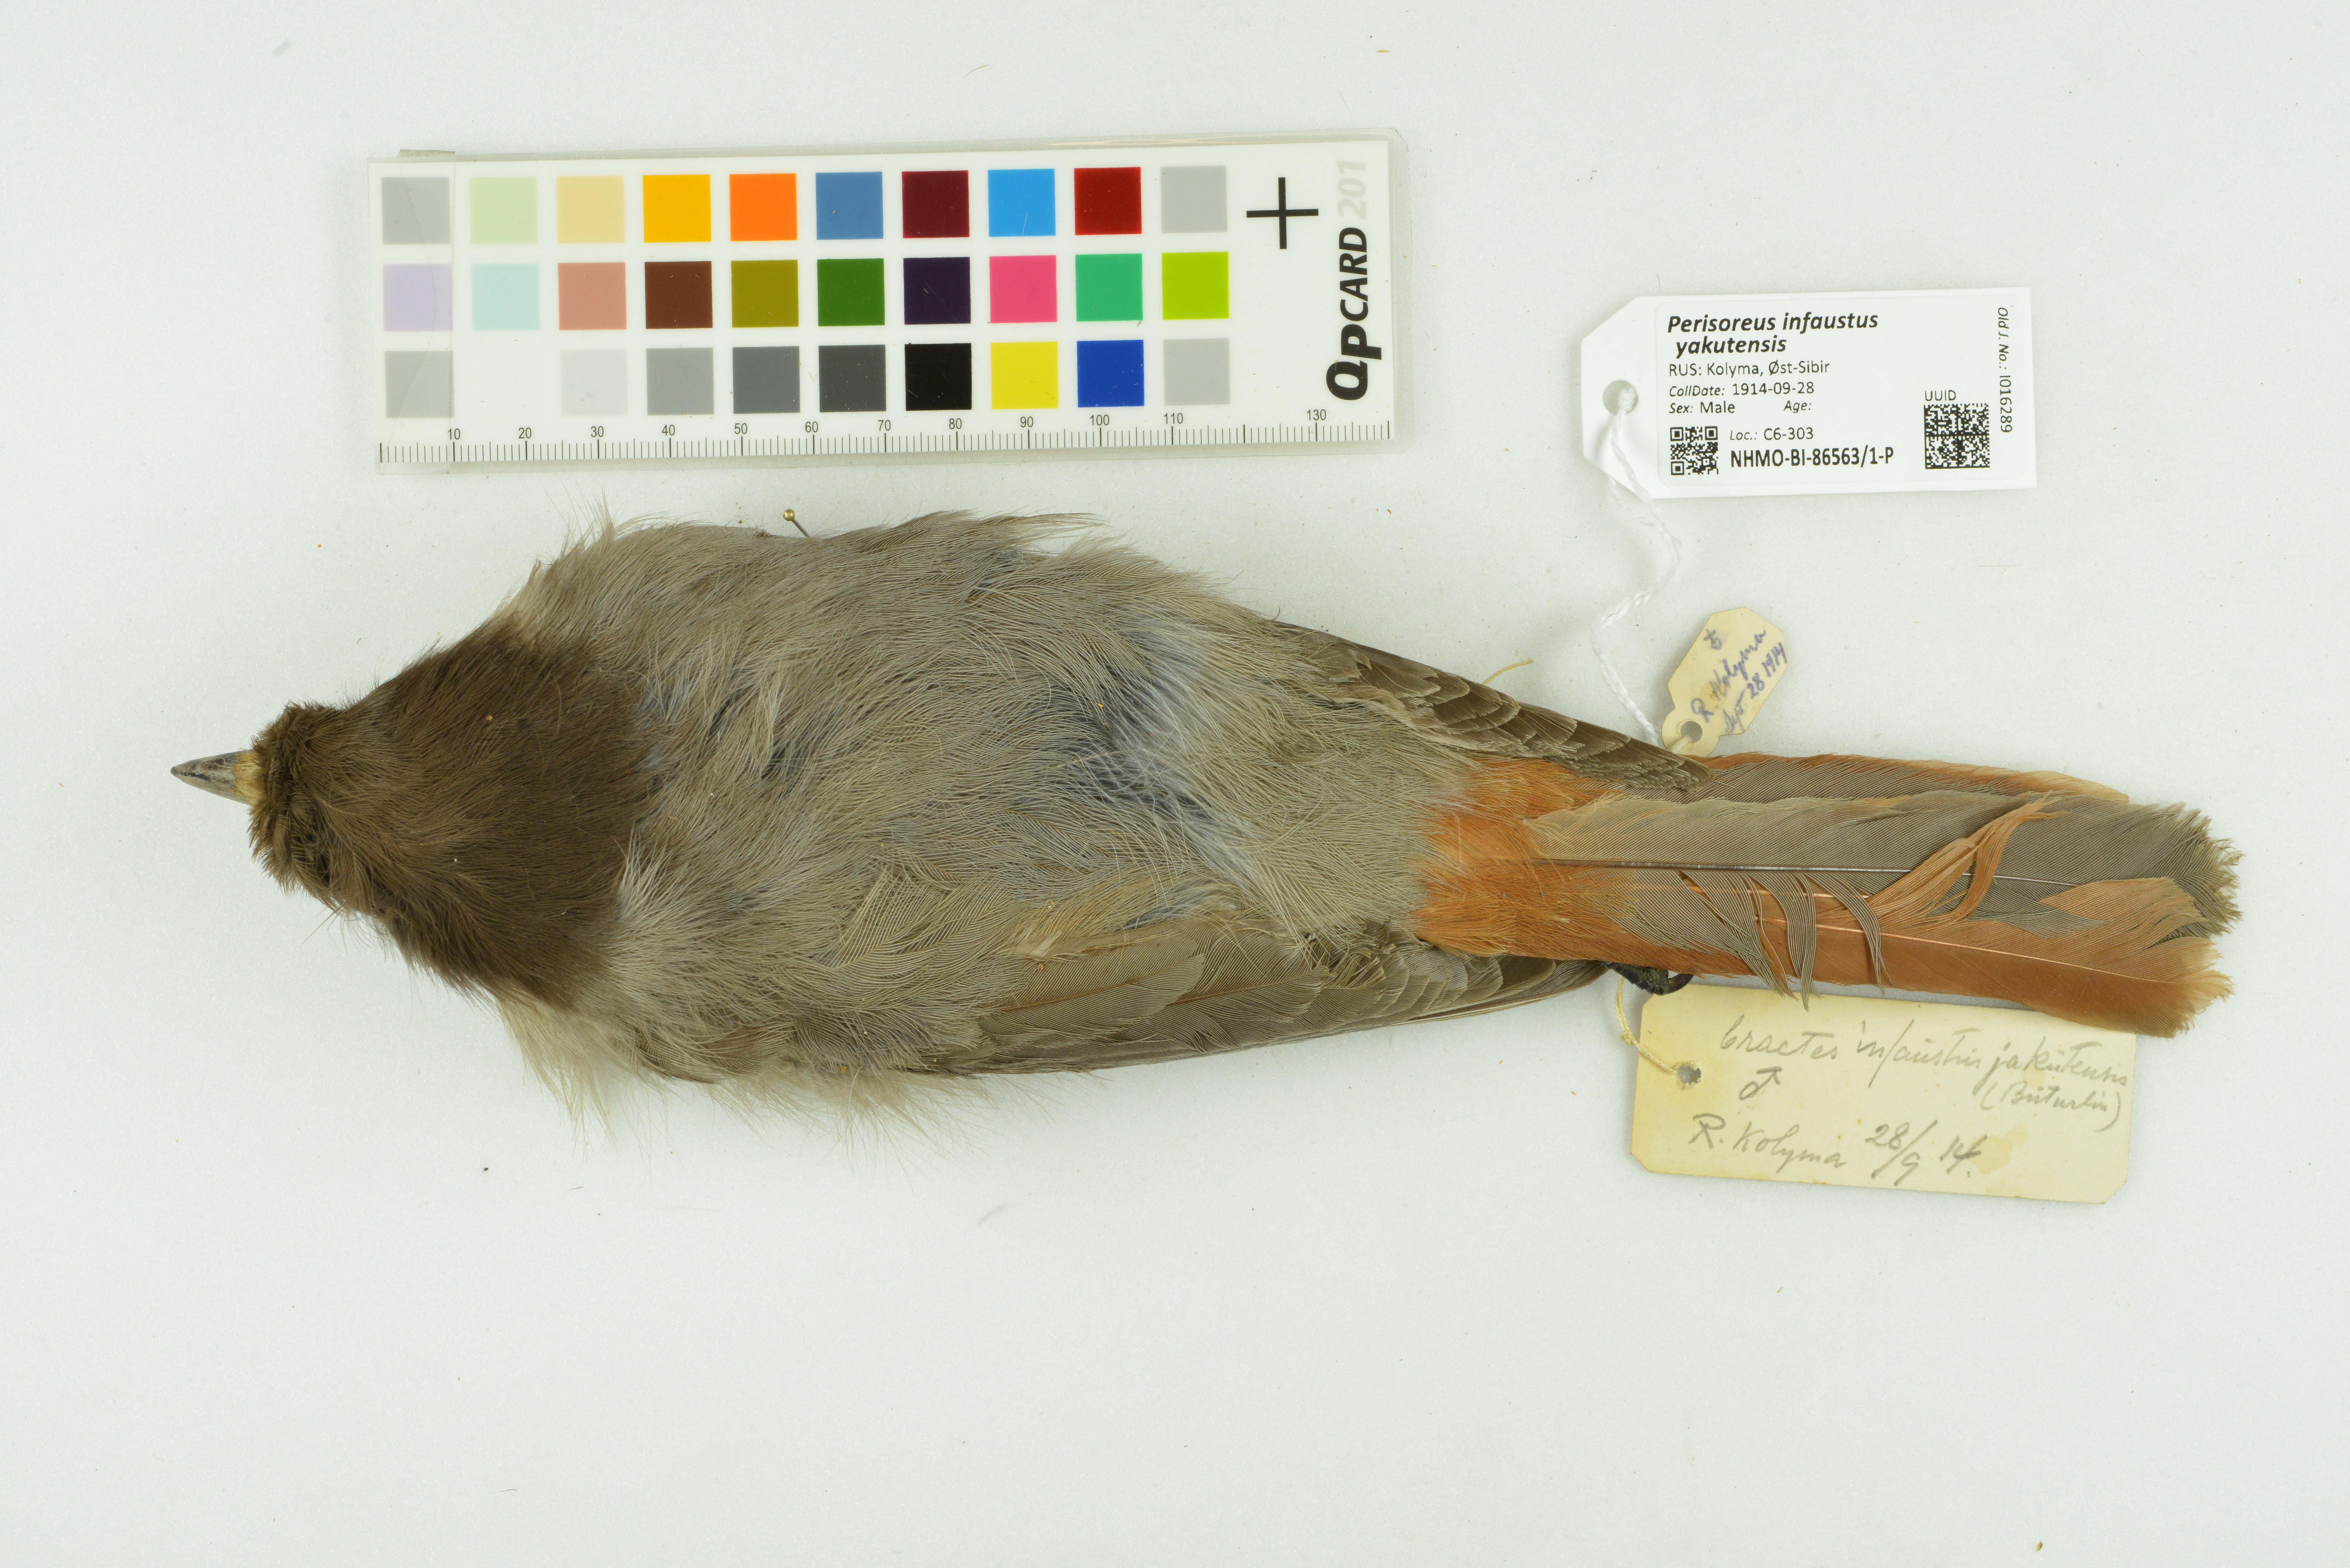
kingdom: Animalia
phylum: Chordata
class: Aves
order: Passeriformes
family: Corvidae
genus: Perisoreus
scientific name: Perisoreus infaustus
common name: Siberian jay
